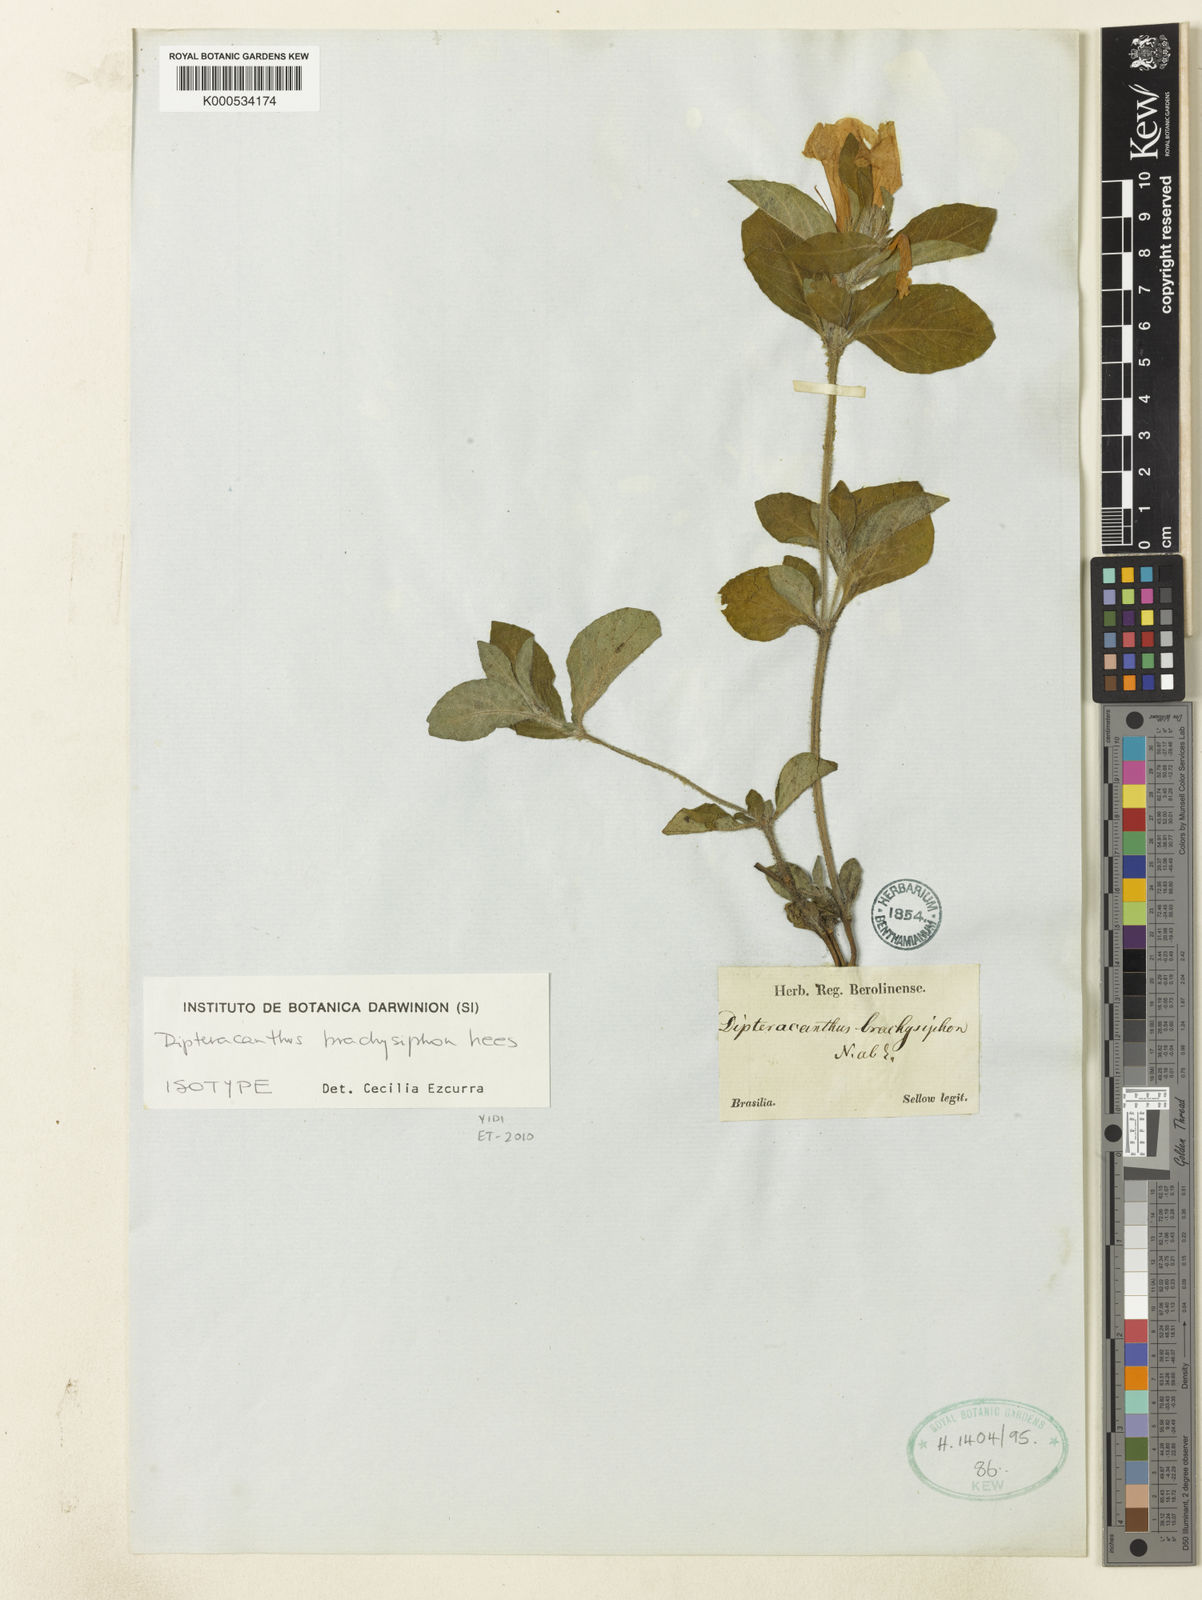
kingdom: Plantae
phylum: Tracheophyta
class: Magnoliopsida
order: Lamiales
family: Acanthaceae
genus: Ruellia
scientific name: Ruellia brachysiphon
